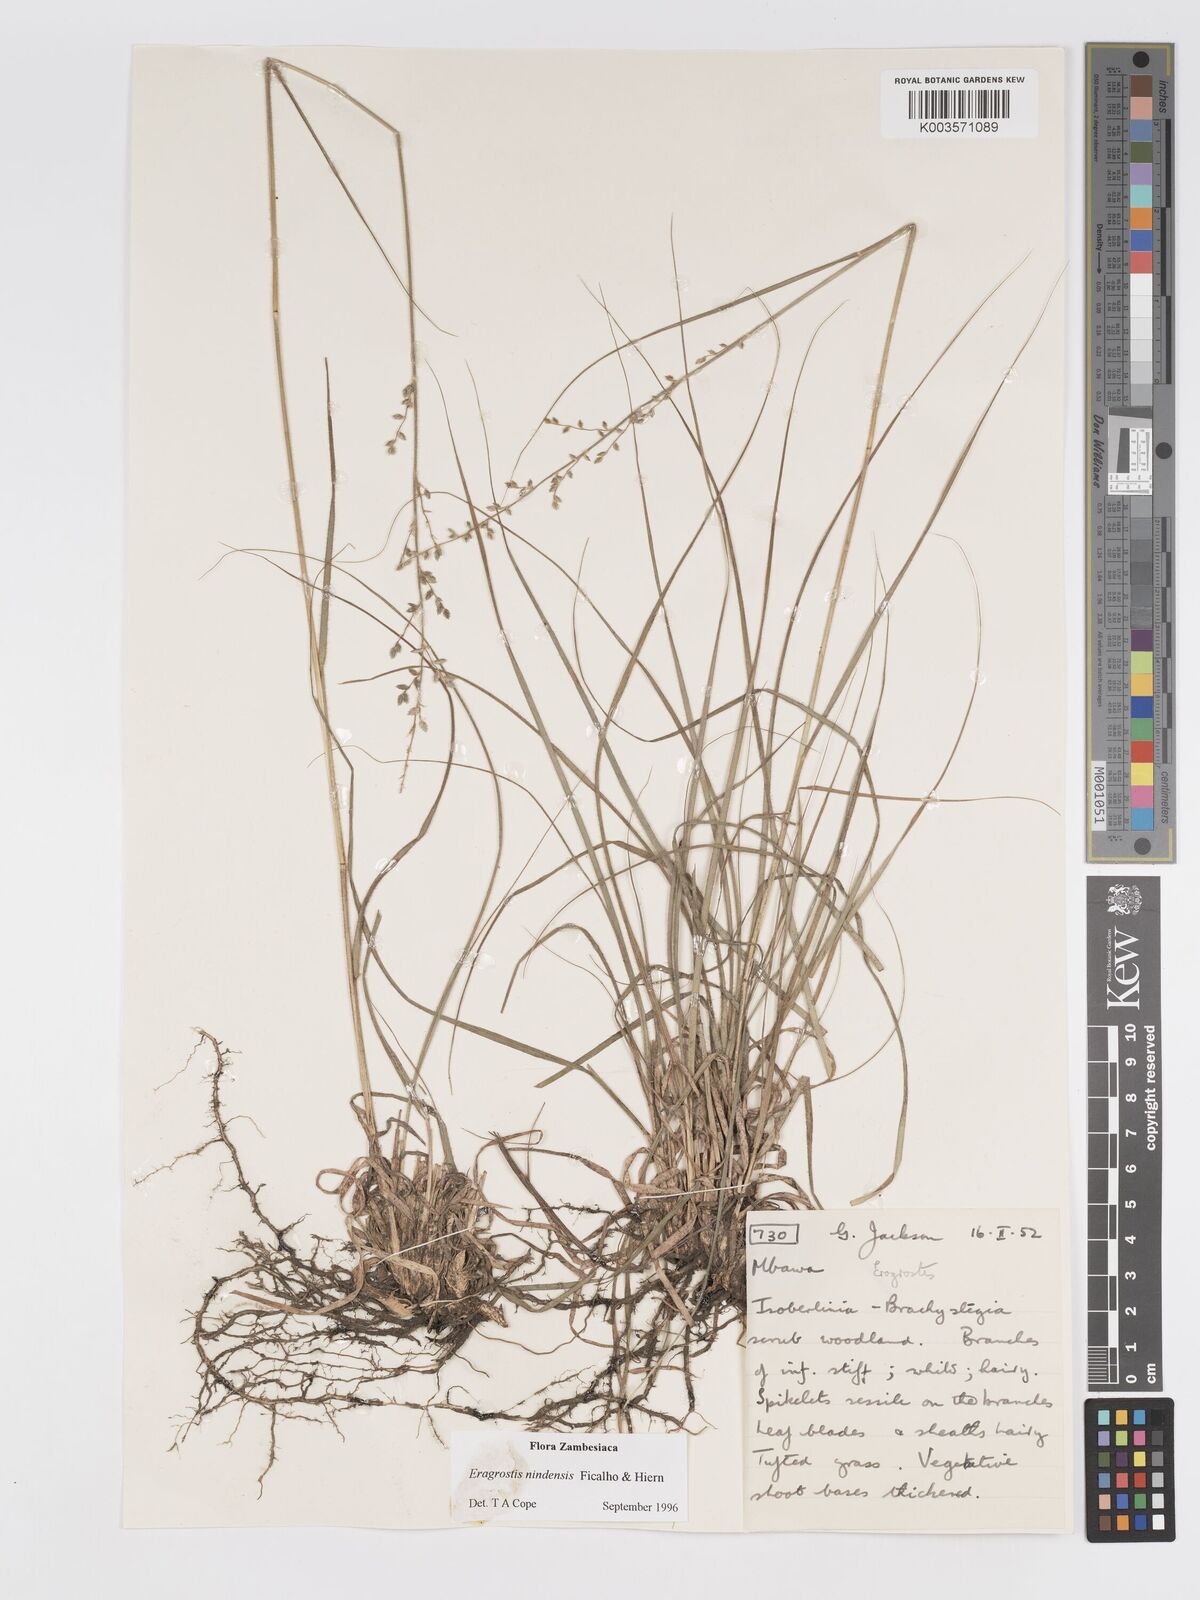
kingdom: Plantae
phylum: Tracheophyta
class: Liliopsida
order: Poales
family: Poaceae
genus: Eragrostis
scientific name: Eragrostis nindensis
